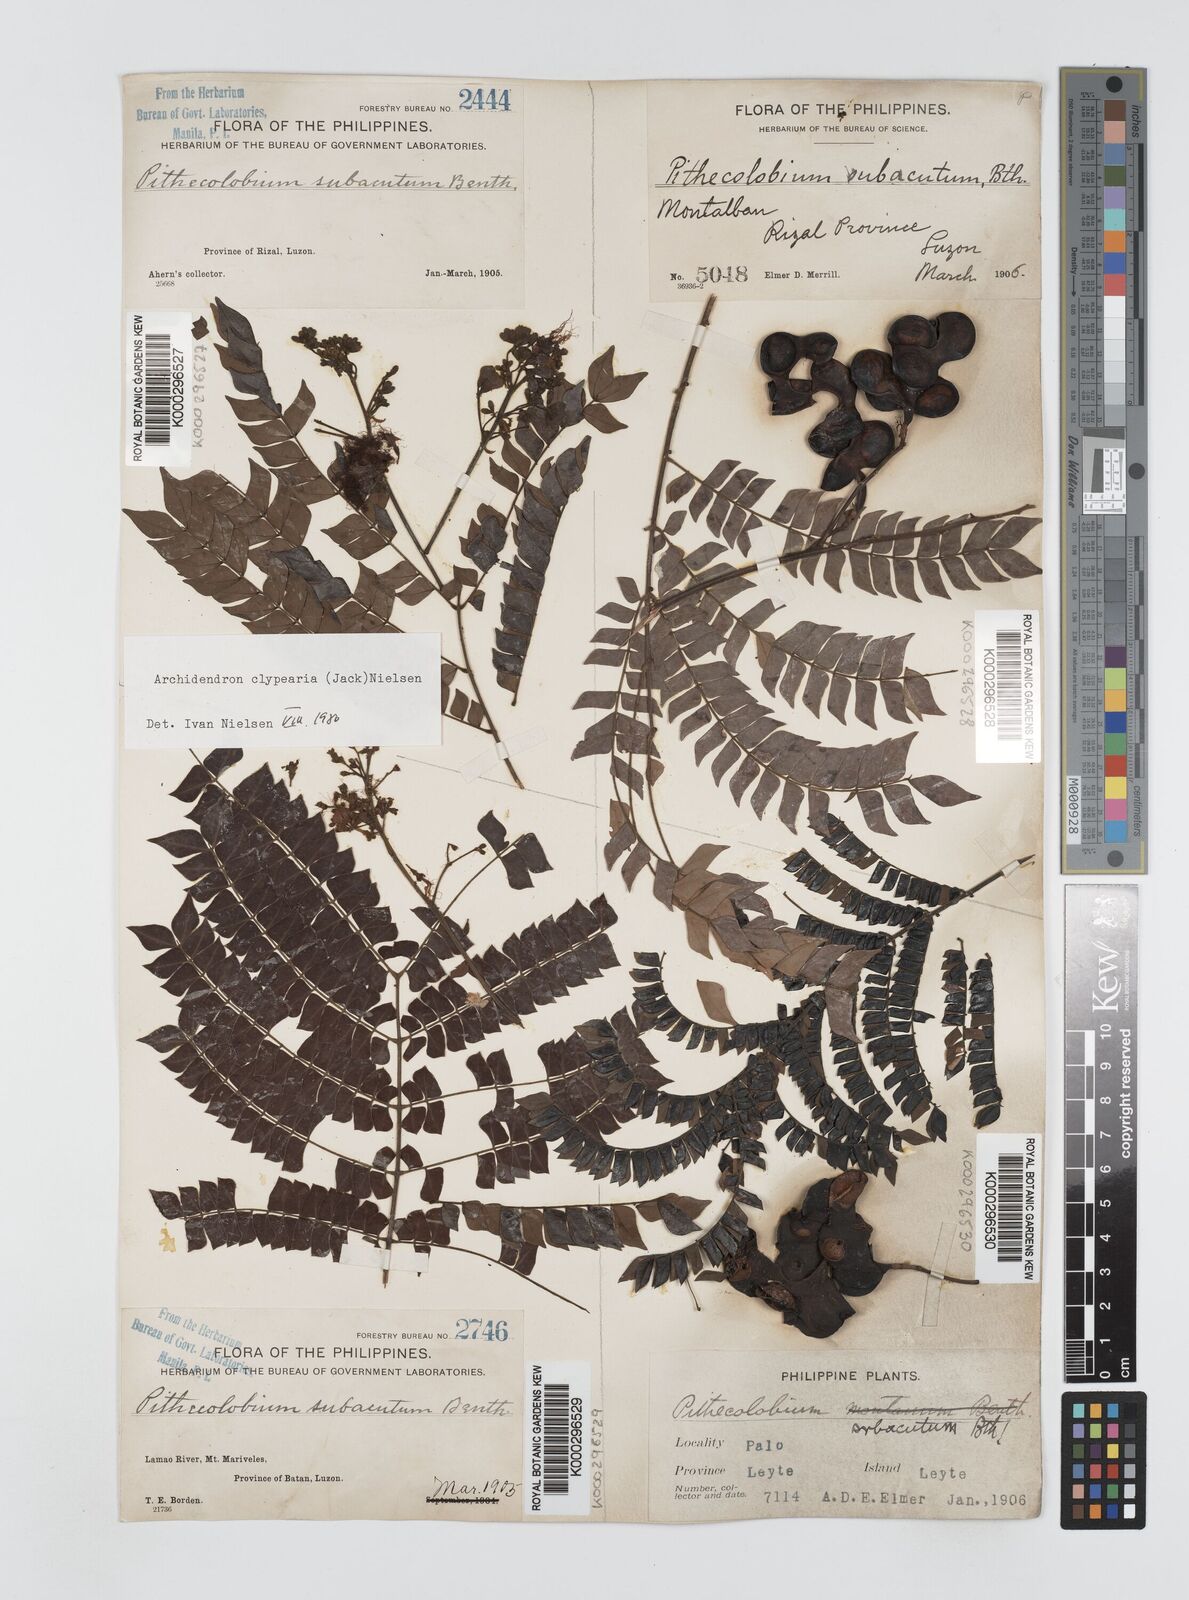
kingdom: Plantae
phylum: Tracheophyta
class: Magnoliopsida
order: Fabales
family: Fabaceae
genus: Archidendron
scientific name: Archidendron clypearia
